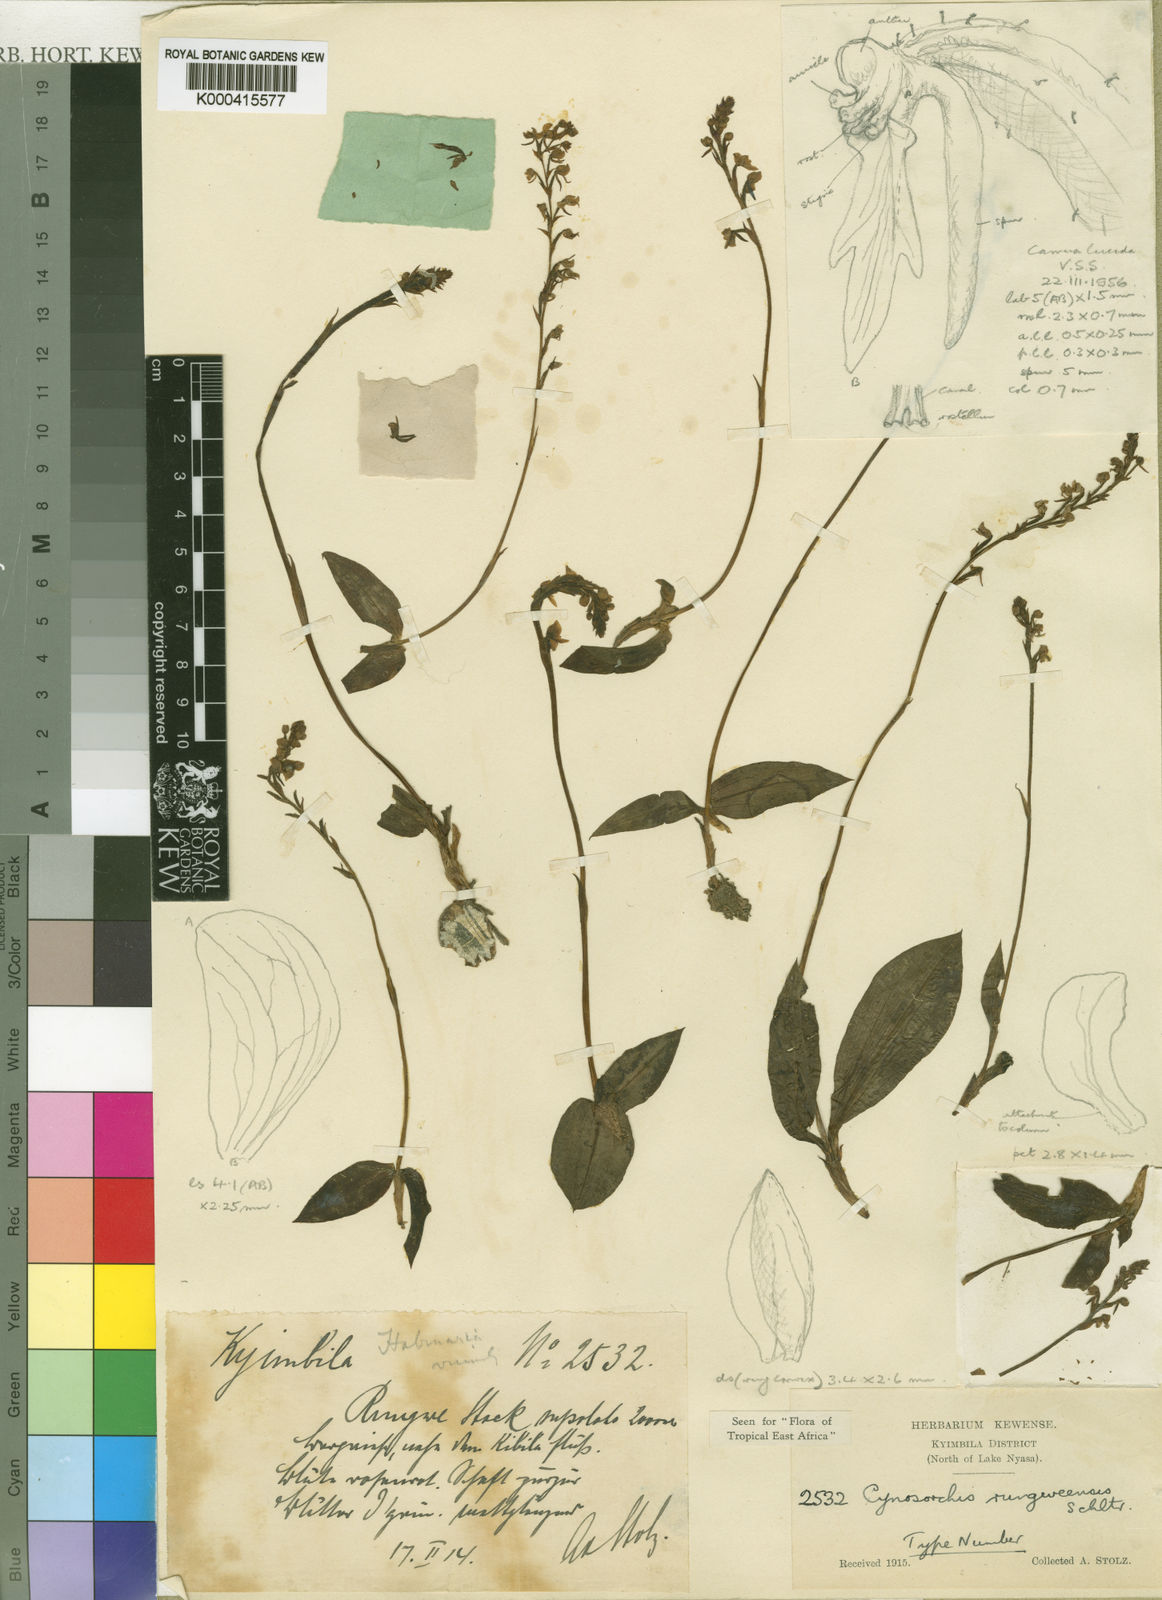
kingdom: Plantae
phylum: Tracheophyta
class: Liliopsida
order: Asparagales
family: Orchidaceae
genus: Cynorkis
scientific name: Cynorkis rungweensis
